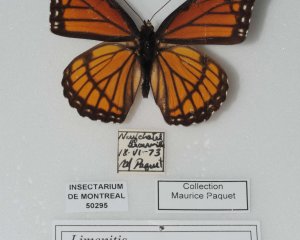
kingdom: Animalia
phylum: Arthropoda
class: Insecta
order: Lepidoptera
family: Nymphalidae
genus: Limenitis
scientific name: Limenitis archippus
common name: Viceroy
